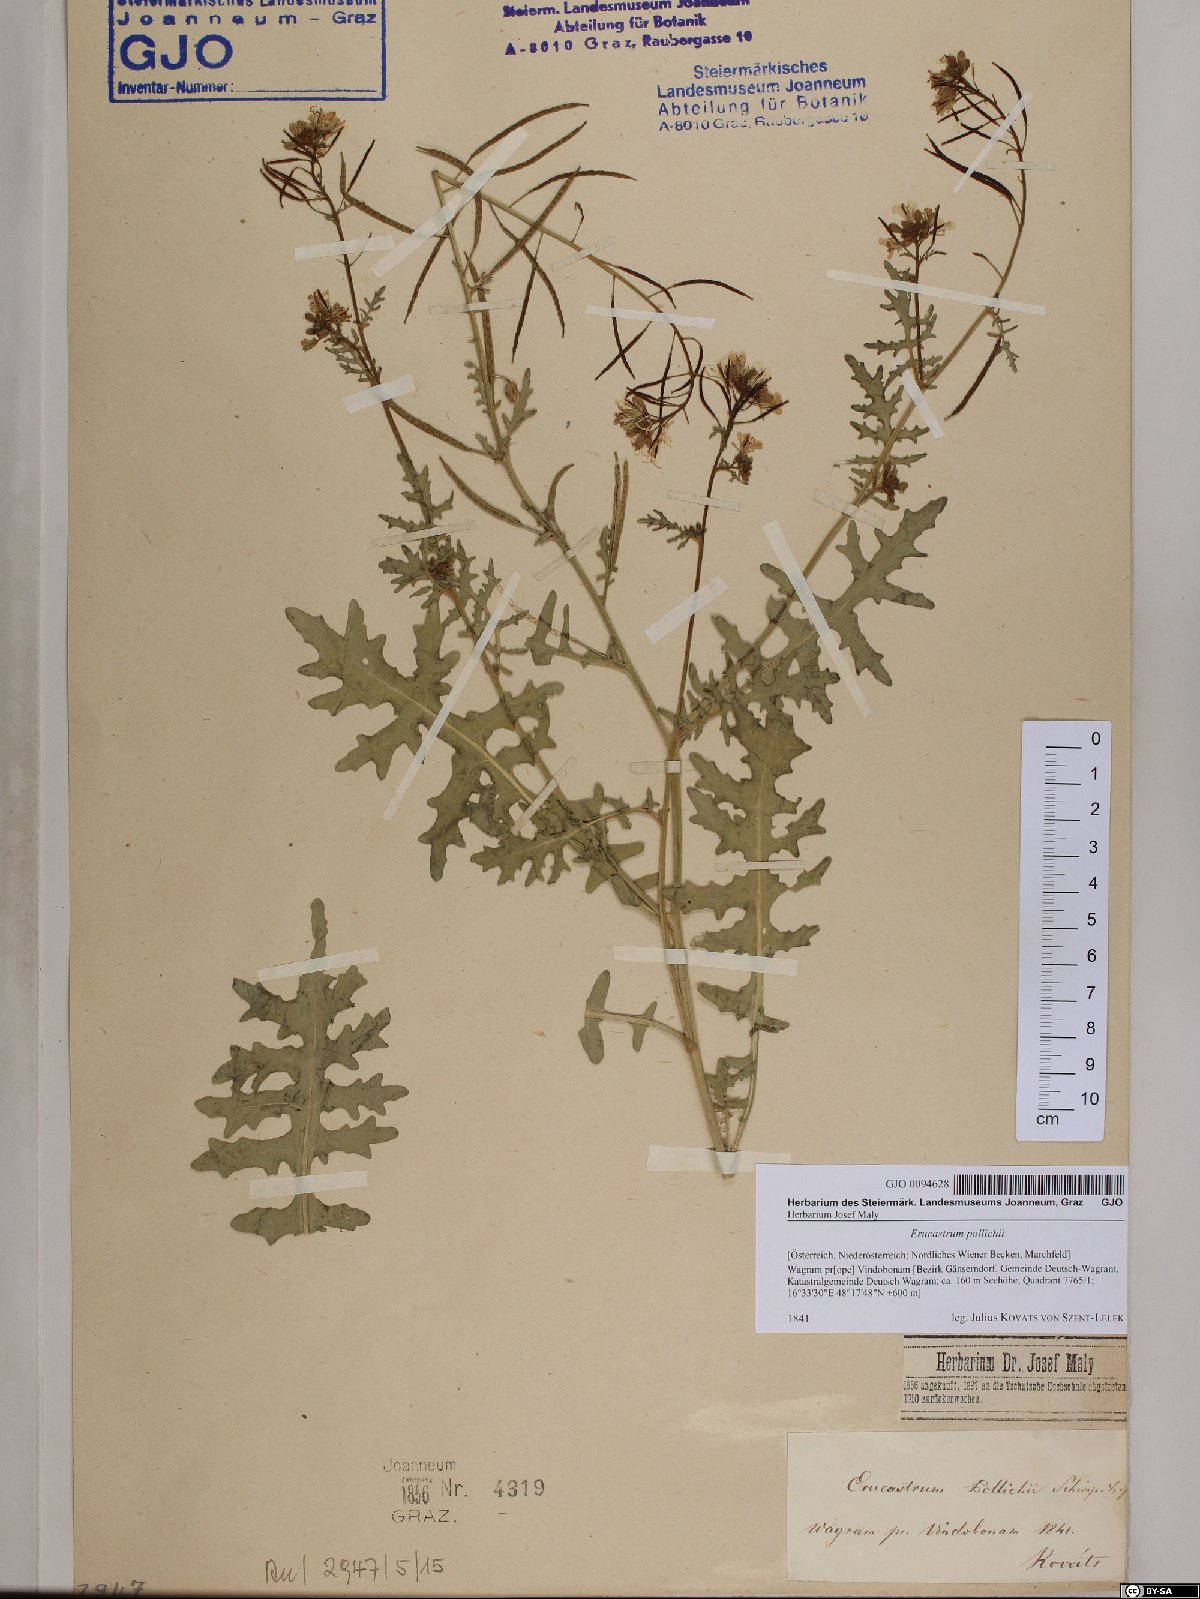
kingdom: Plantae
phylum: Tracheophyta
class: Magnoliopsida
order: Brassicales
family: Brassicaceae
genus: Erucastrum
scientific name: Erucastrum gallicum
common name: Hairy rocket
